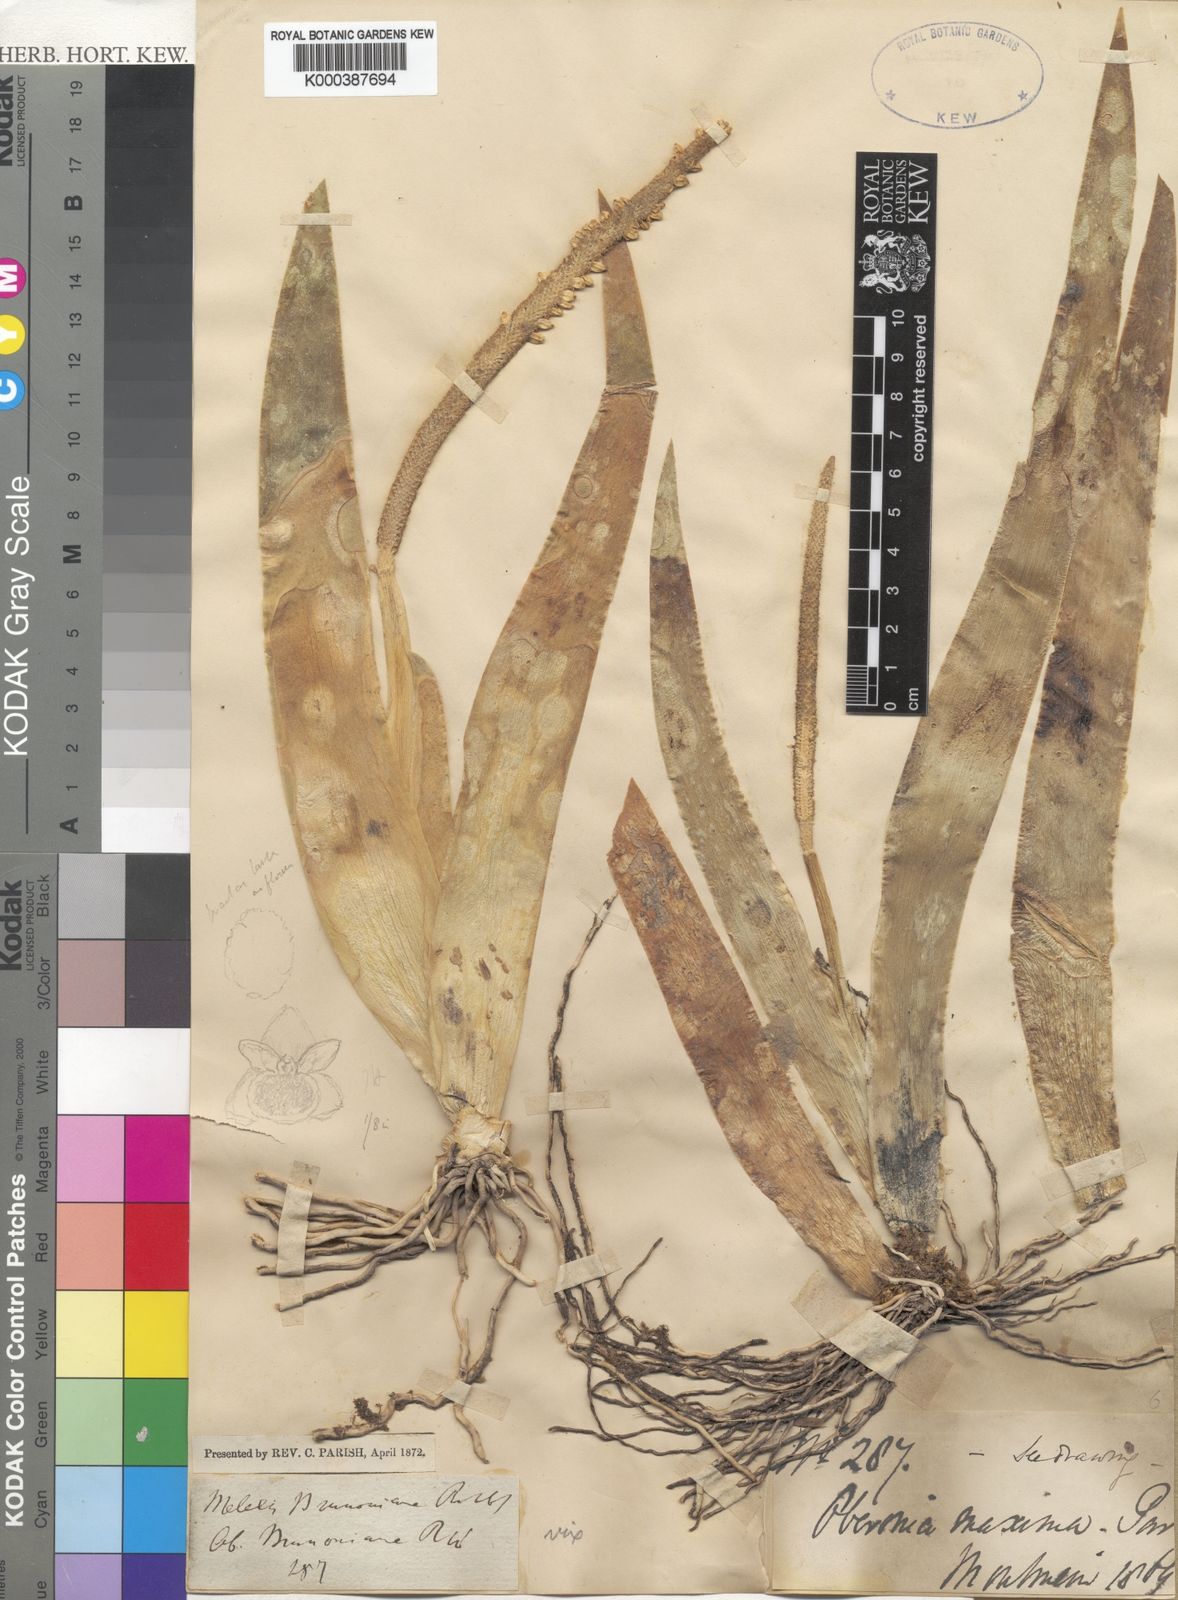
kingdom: Plantae
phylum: Tracheophyta
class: Liliopsida
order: Asparagales
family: Orchidaceae
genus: Oberonia
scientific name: Oberonia maxima
